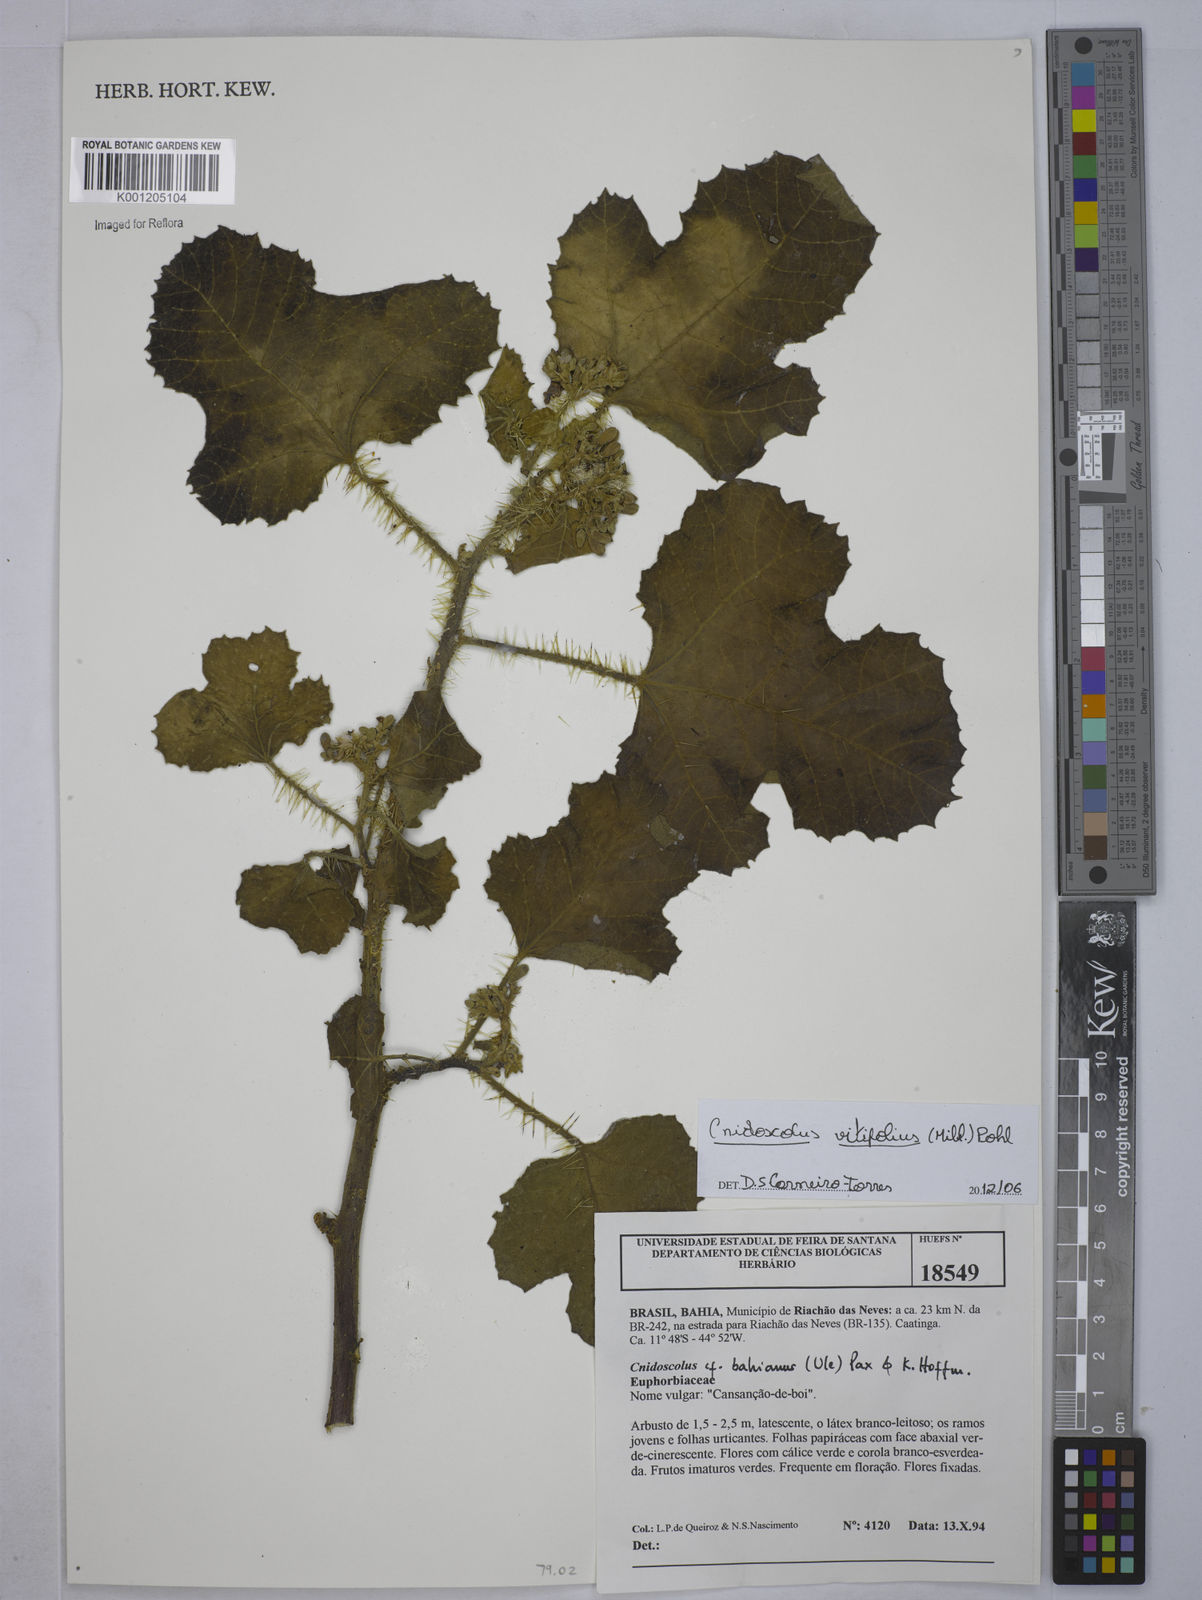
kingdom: Plantae
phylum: Tracheophyta
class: Magnoliopsida
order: Malpighiales
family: Euphorbiaceae
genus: Cnidoscolus
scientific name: Cnidoscolus vitifolius
